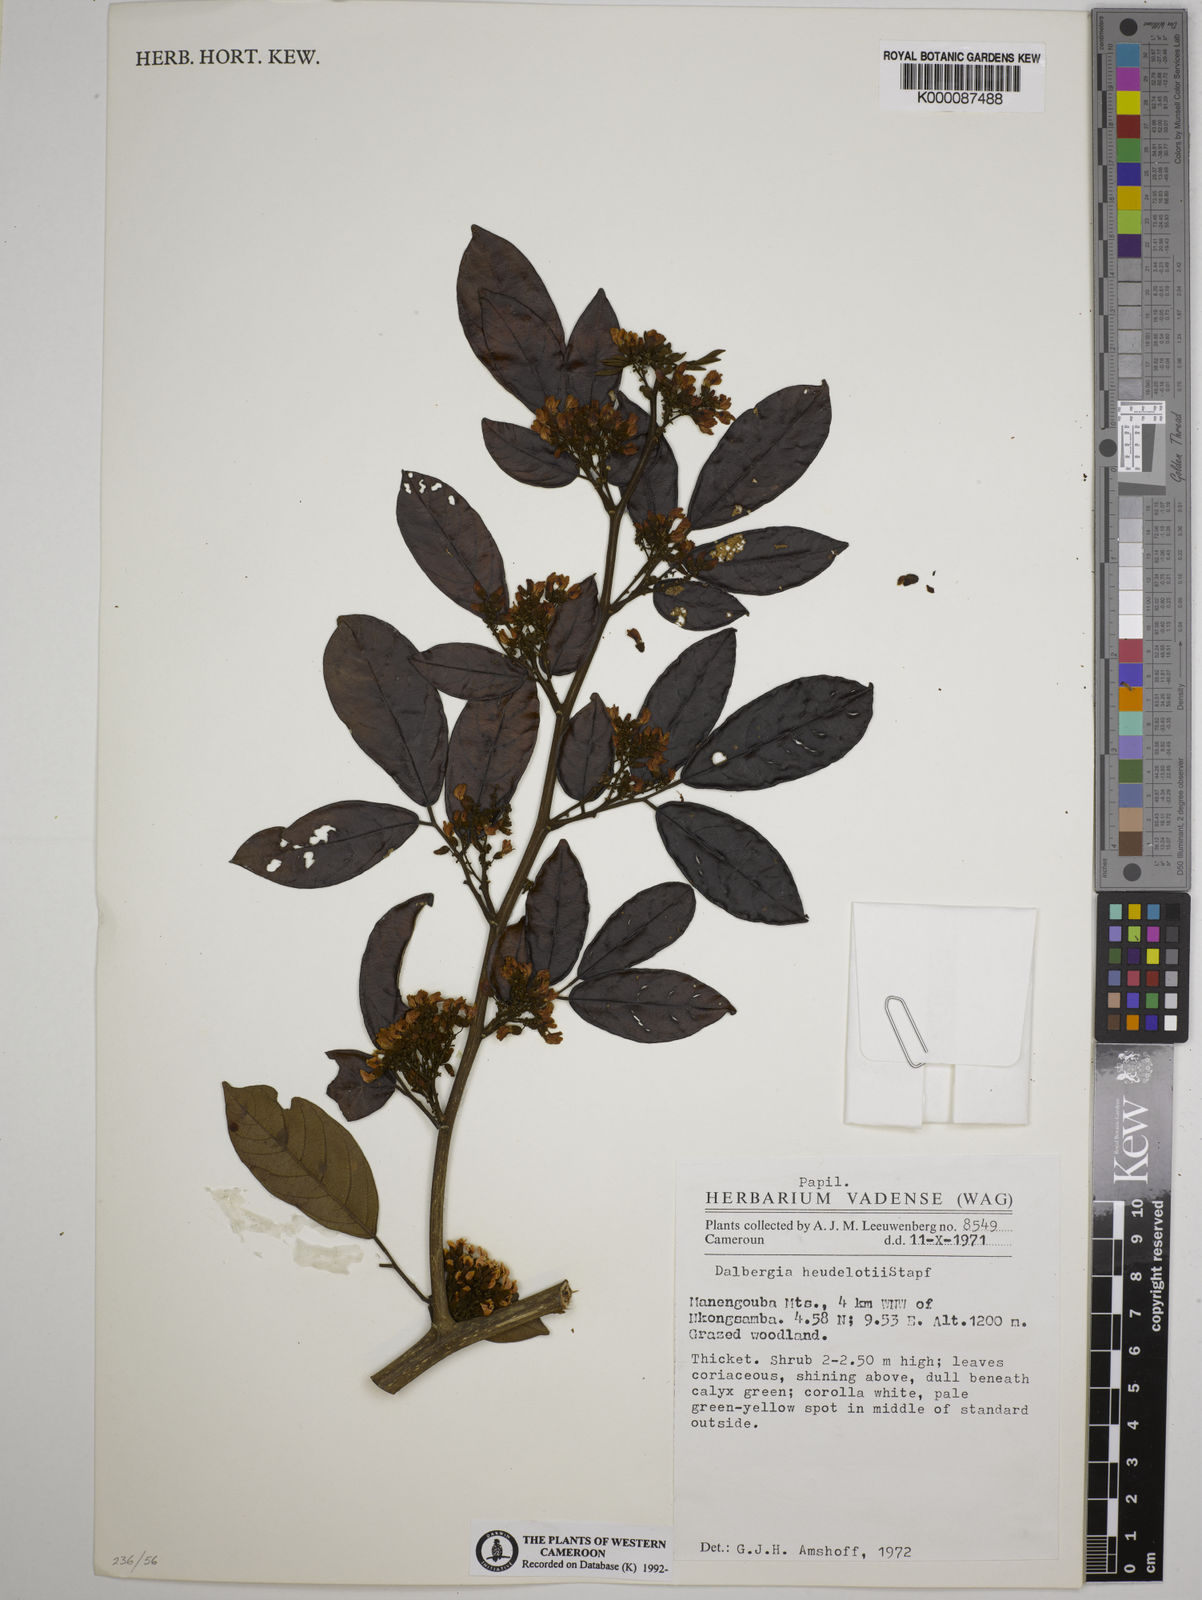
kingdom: Plantae
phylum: Tracheophyta
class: Magnoliopsida
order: Fabales
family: Fabaceae
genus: Dalbergia
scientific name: Dalbergia heudelotii
